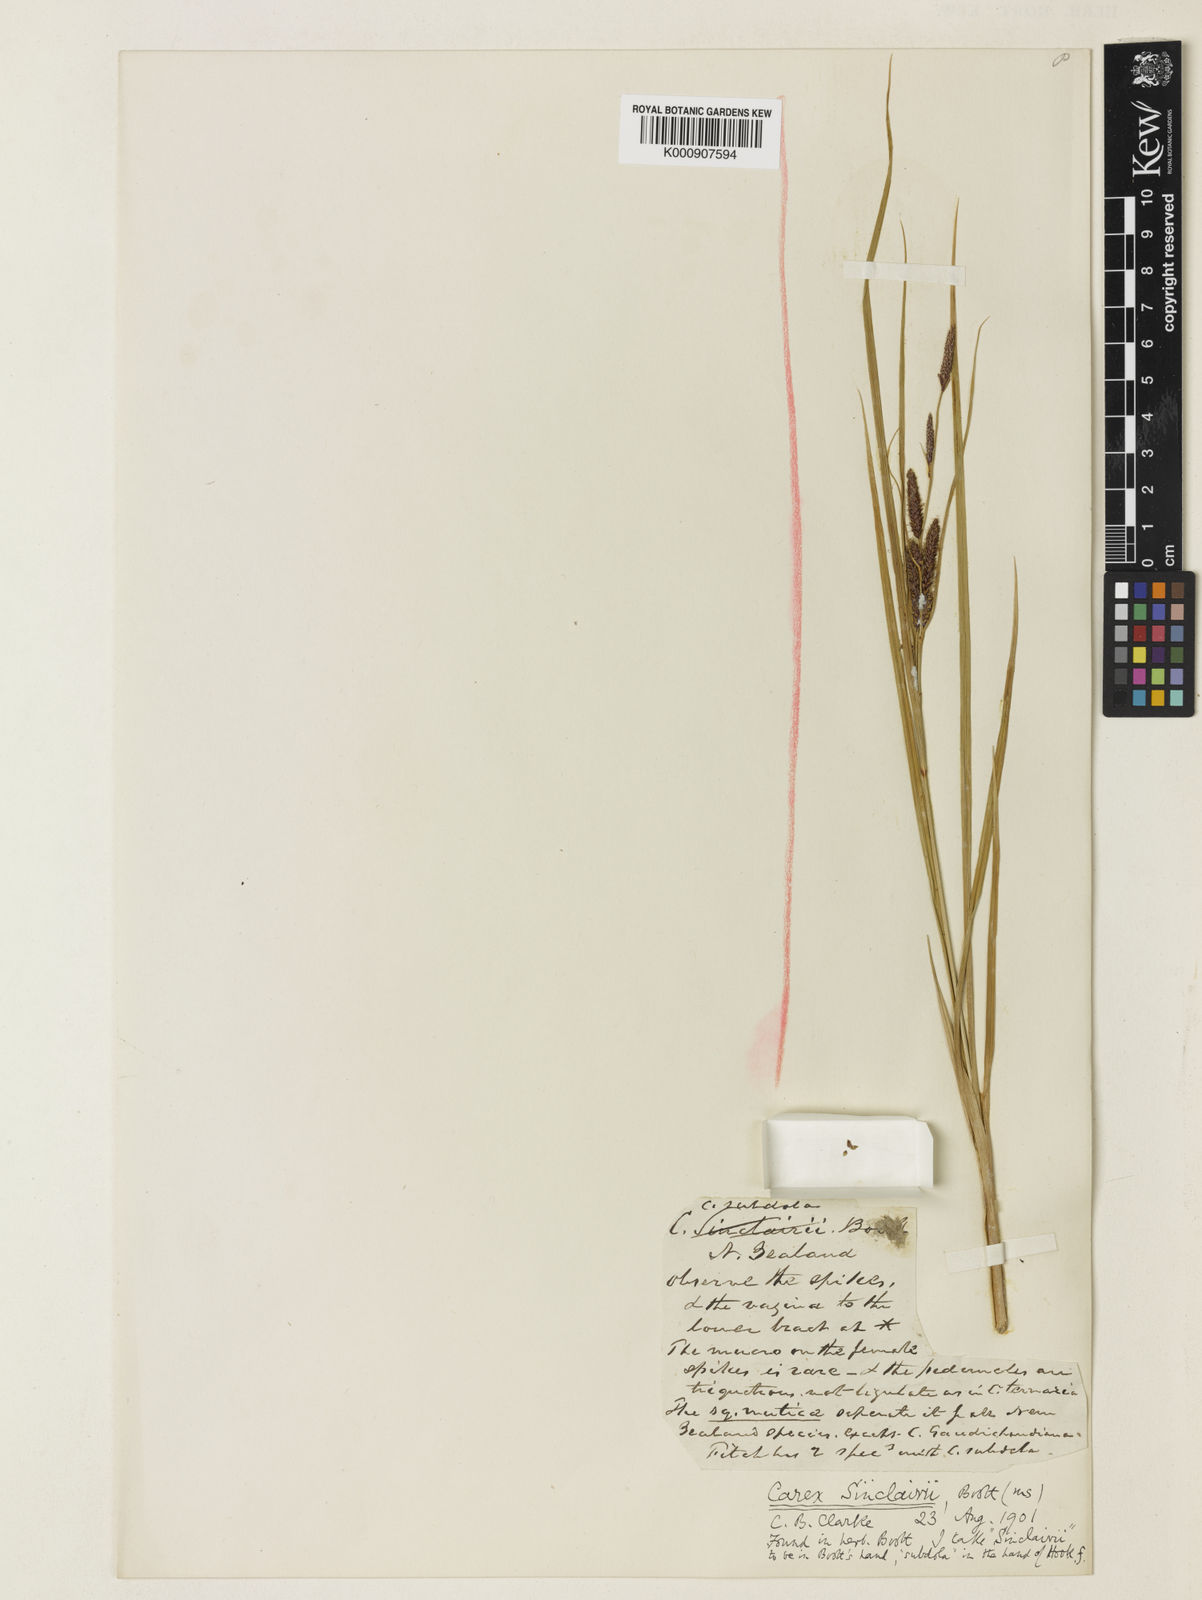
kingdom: Plantae
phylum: Tracheophyta
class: Liliopsida
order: Poales
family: Cyperaceae
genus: Carex
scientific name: Carex sinclairii
